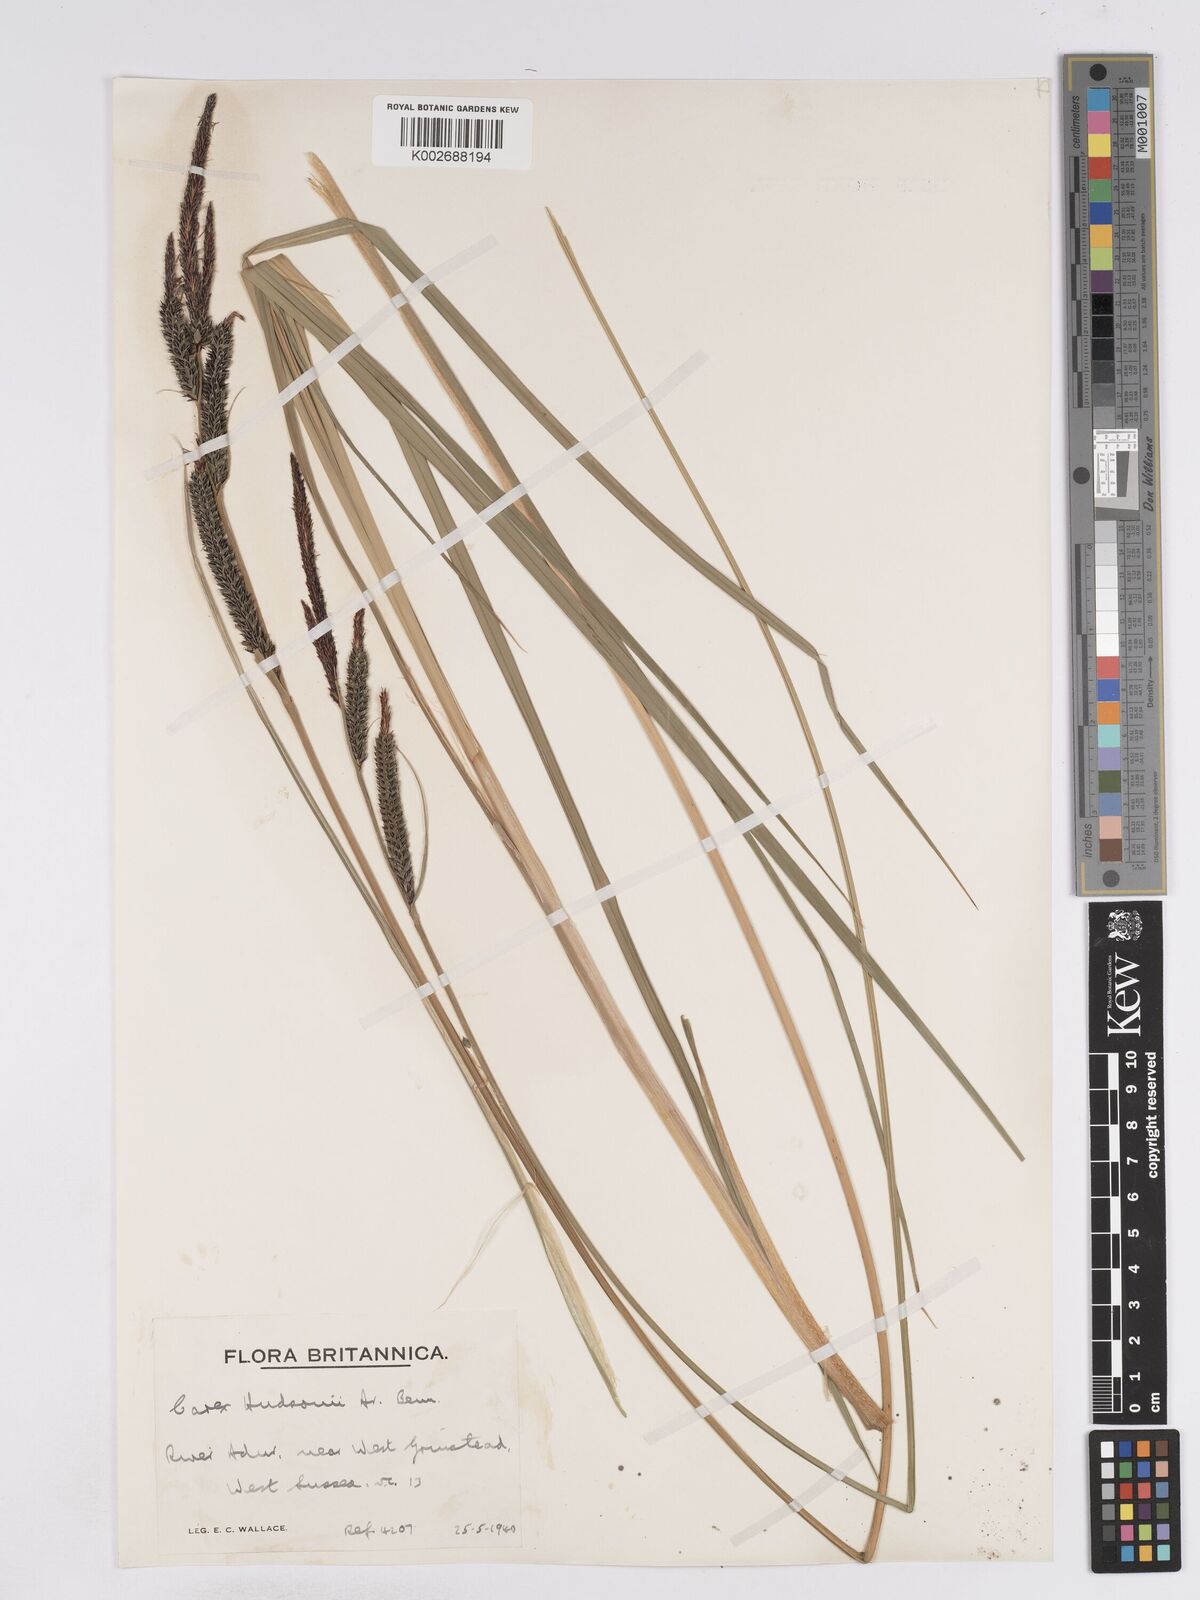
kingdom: Plantae
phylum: Tracheophyta
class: Liliopsida
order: Poales
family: Cyperaceae
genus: Carex
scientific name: Carex elata
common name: Tufted sedge
